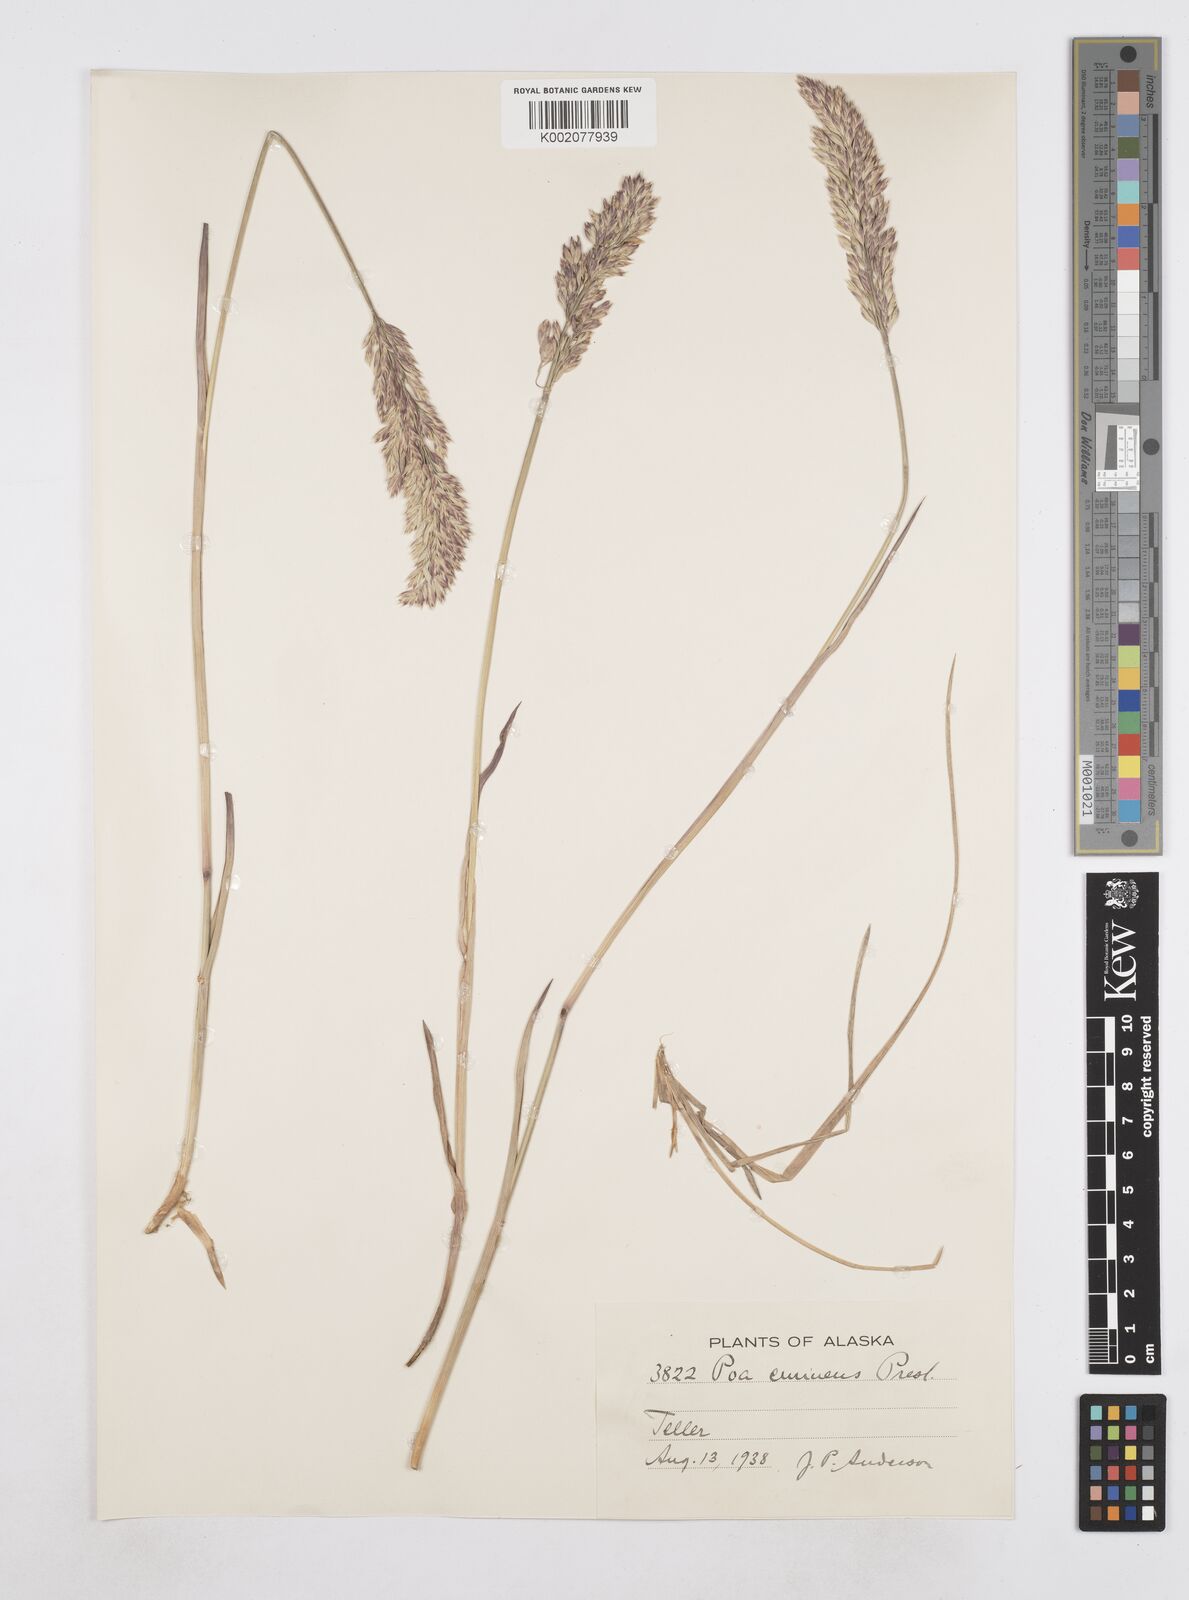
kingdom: Plantae
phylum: Tracheophyta
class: Liliopsida
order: Poales
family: Poaceae
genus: Arctopoa
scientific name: Arctopoa eminens
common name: Eminent bluegrass
